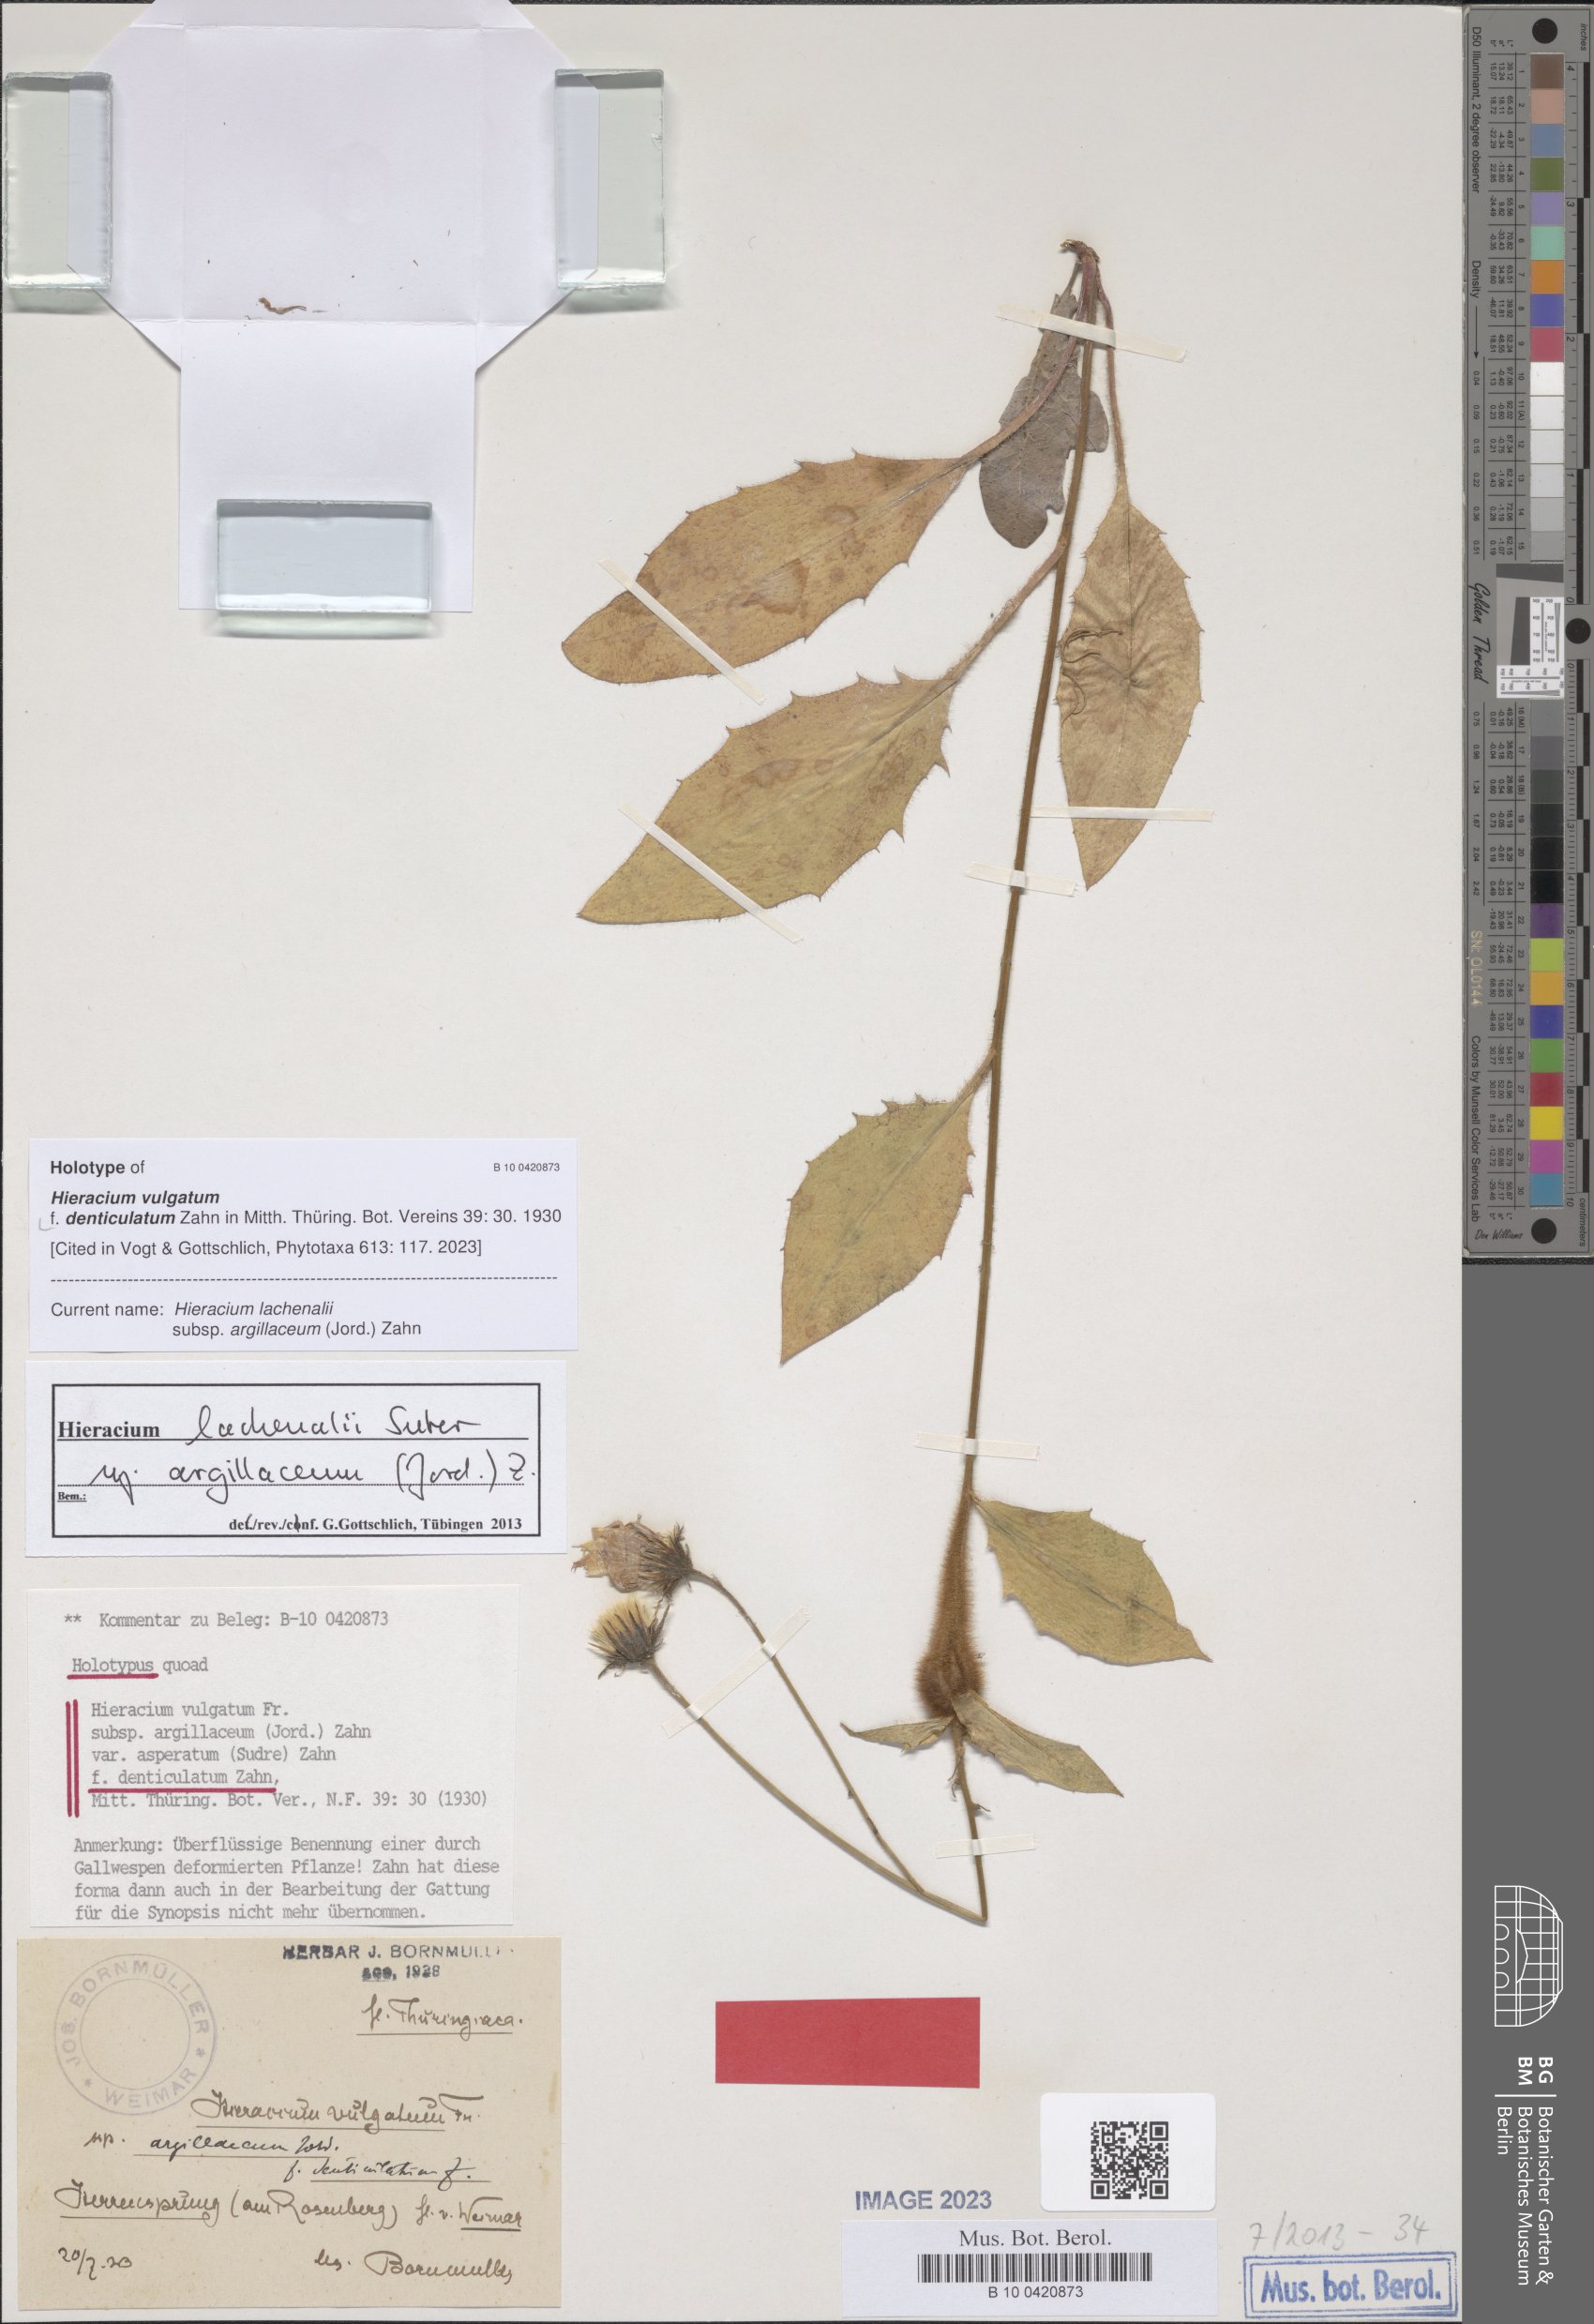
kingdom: Plantae
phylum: Tracheophyta
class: Magnoliopsida
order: Asterales
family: Asteraceae
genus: Hieracium
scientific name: Hieracium vulgatum
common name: Common hawkweed
